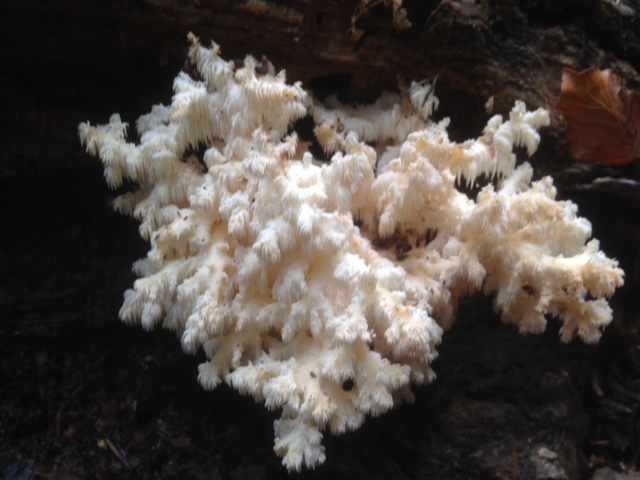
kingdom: Fungi
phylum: Basidiomycota
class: Agaricomycetes
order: Russulales
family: Hericiaceae
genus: Hericium
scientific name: Hericium coralloides
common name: koralpigsvamp
